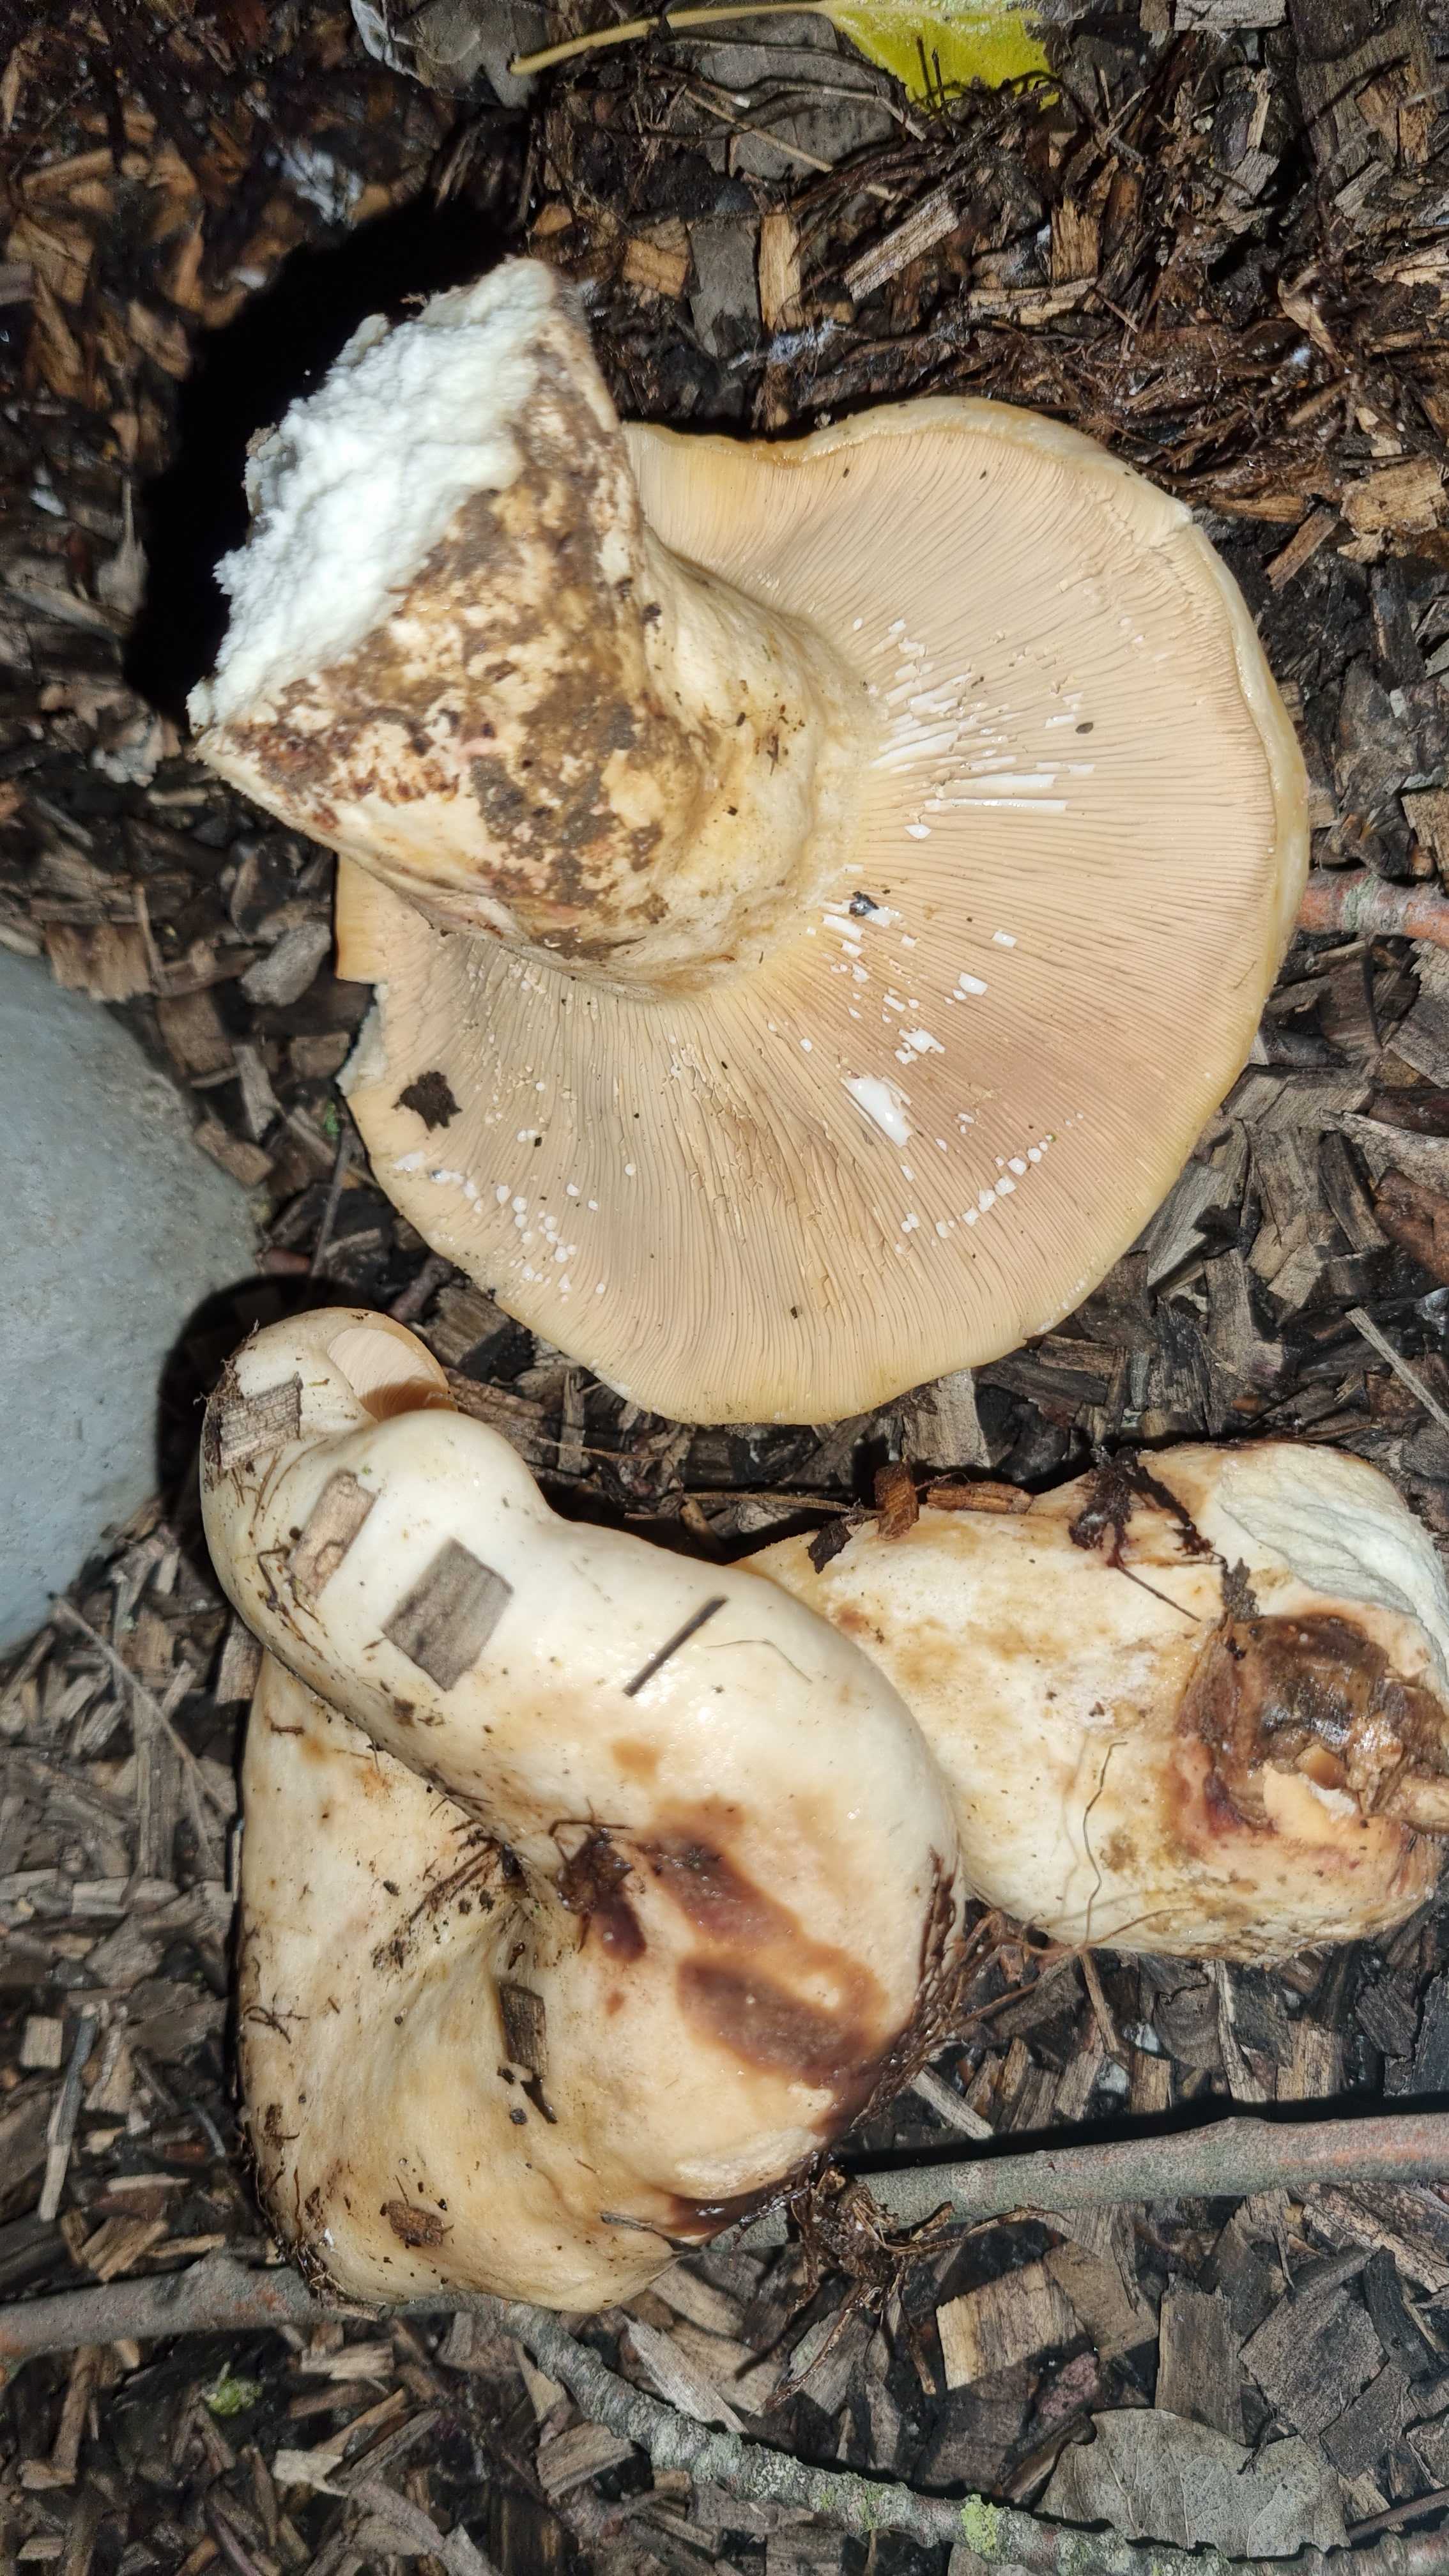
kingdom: Fungi
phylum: Basidiomycota
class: Agaricomycetes
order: Russulales
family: Russulaceae
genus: Lactarius
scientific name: Lactarius controversus
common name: rosabladet mælkehat
